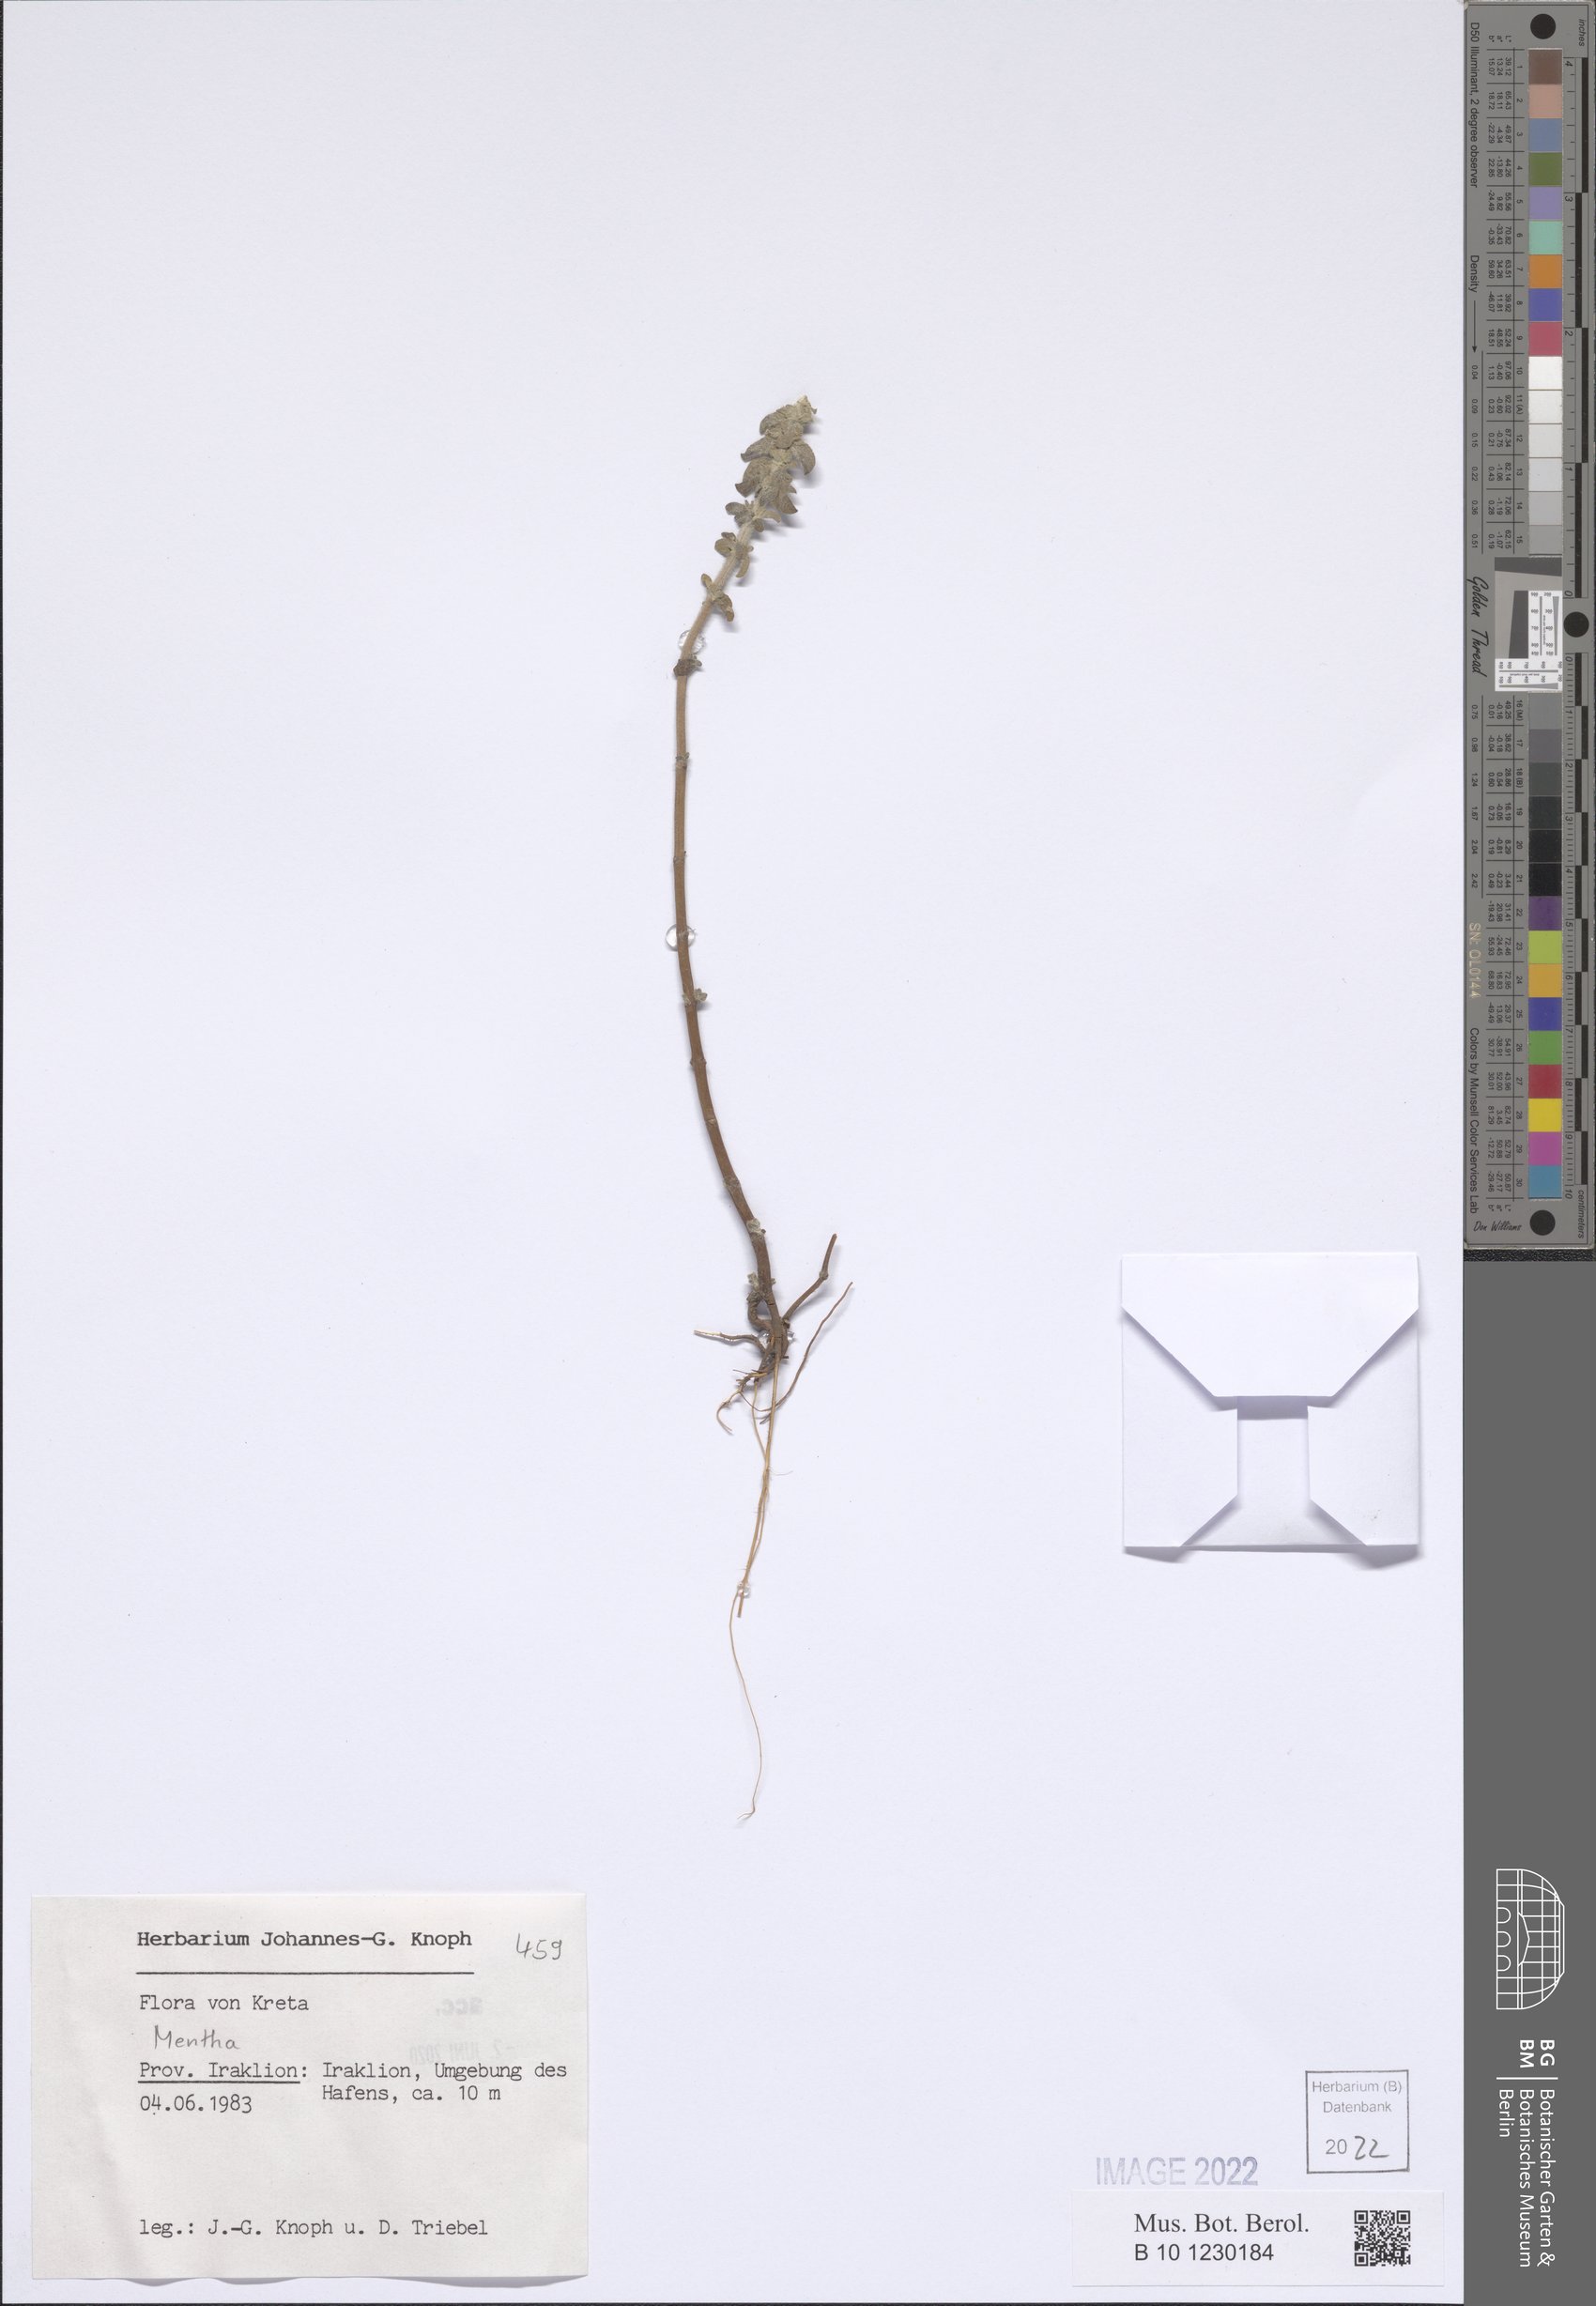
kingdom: Plantae
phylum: Tracheophyta
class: Magnoliopsida
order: Lamiales
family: Lamiaceae
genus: Mentha
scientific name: Mentha
